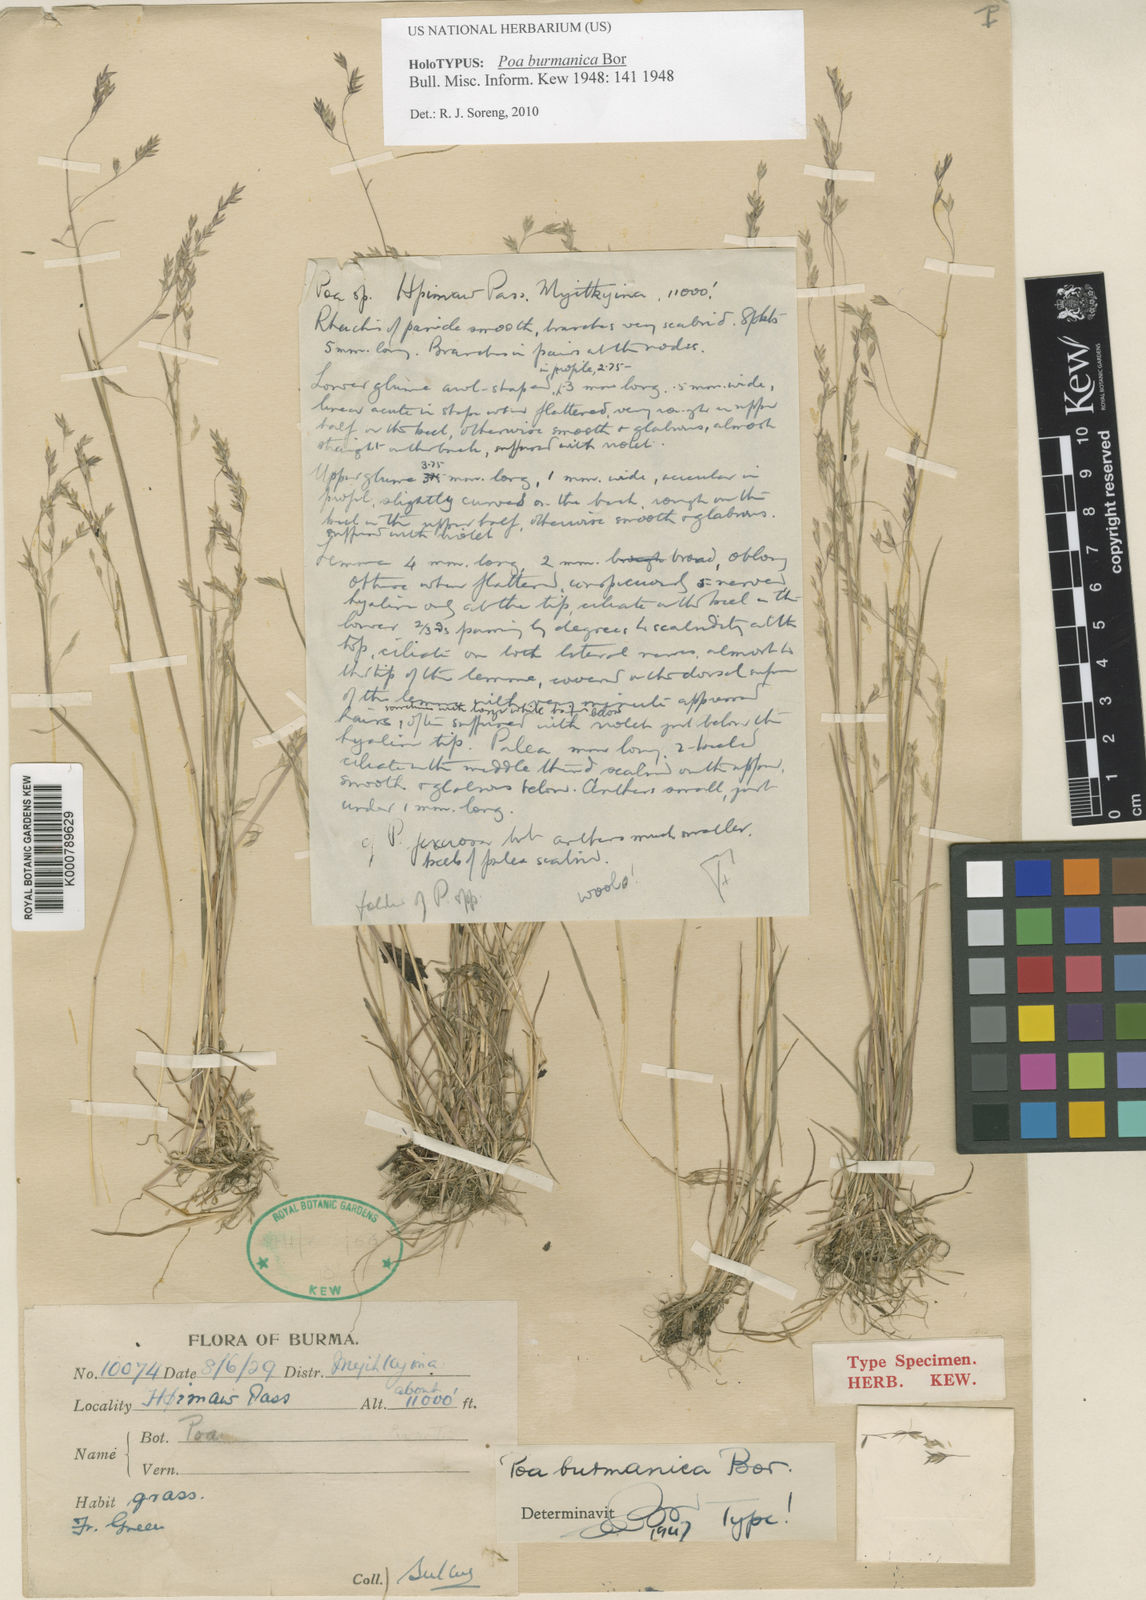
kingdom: Plantae
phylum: Tracheophyta
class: Liliopsida
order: Poales
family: Poaceae
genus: Poa
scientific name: Poa burmanica
